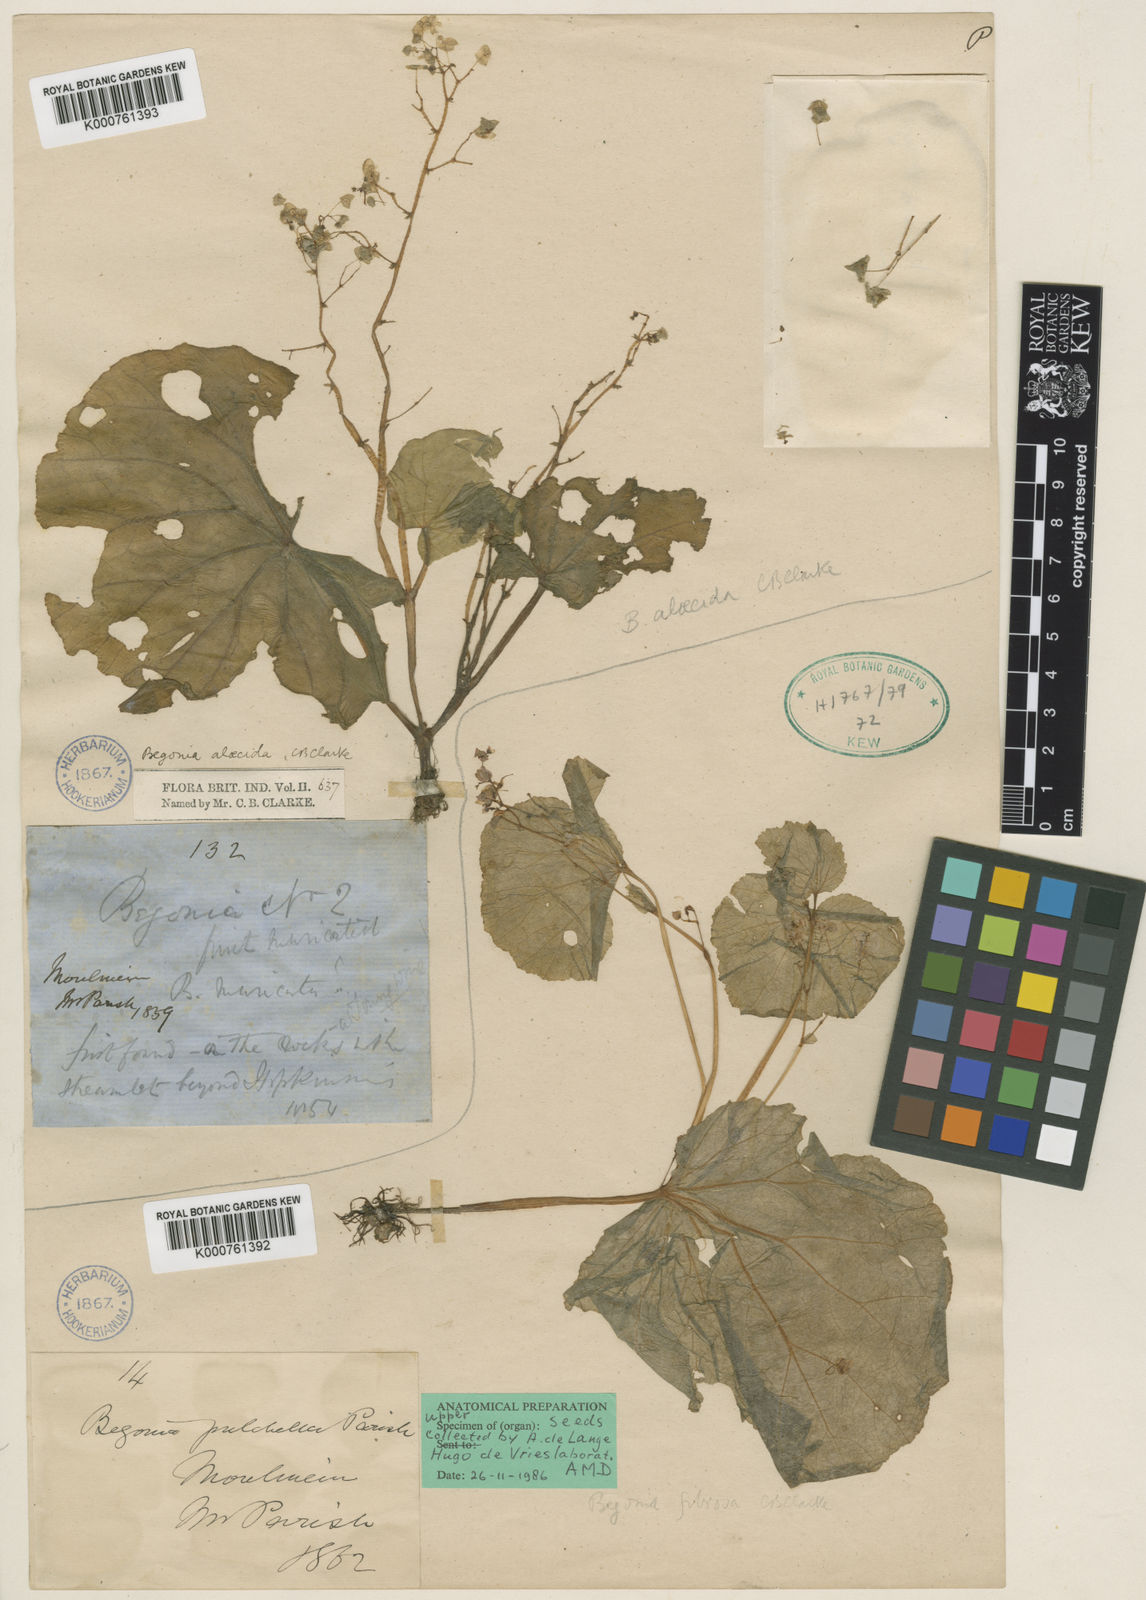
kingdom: Plantae
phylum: Tracheophyta
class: Magnoliopsida
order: Cucurbitales
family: Begoniaceae
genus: Begonia
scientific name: Begonia fibrosa
